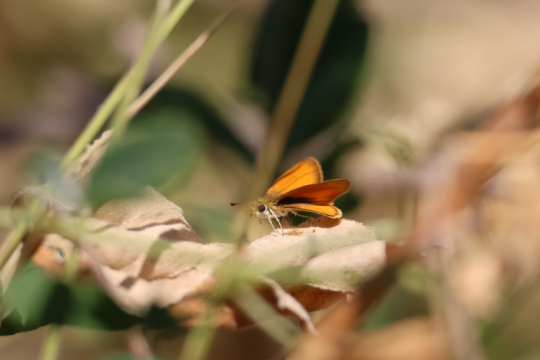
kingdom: Animalia
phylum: Arthropoda
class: Insecta
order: Lepidoptera
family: Hesperiidae
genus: Ancyloxypha
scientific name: Ancyloxypha arene
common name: Tropical Least Skipper
